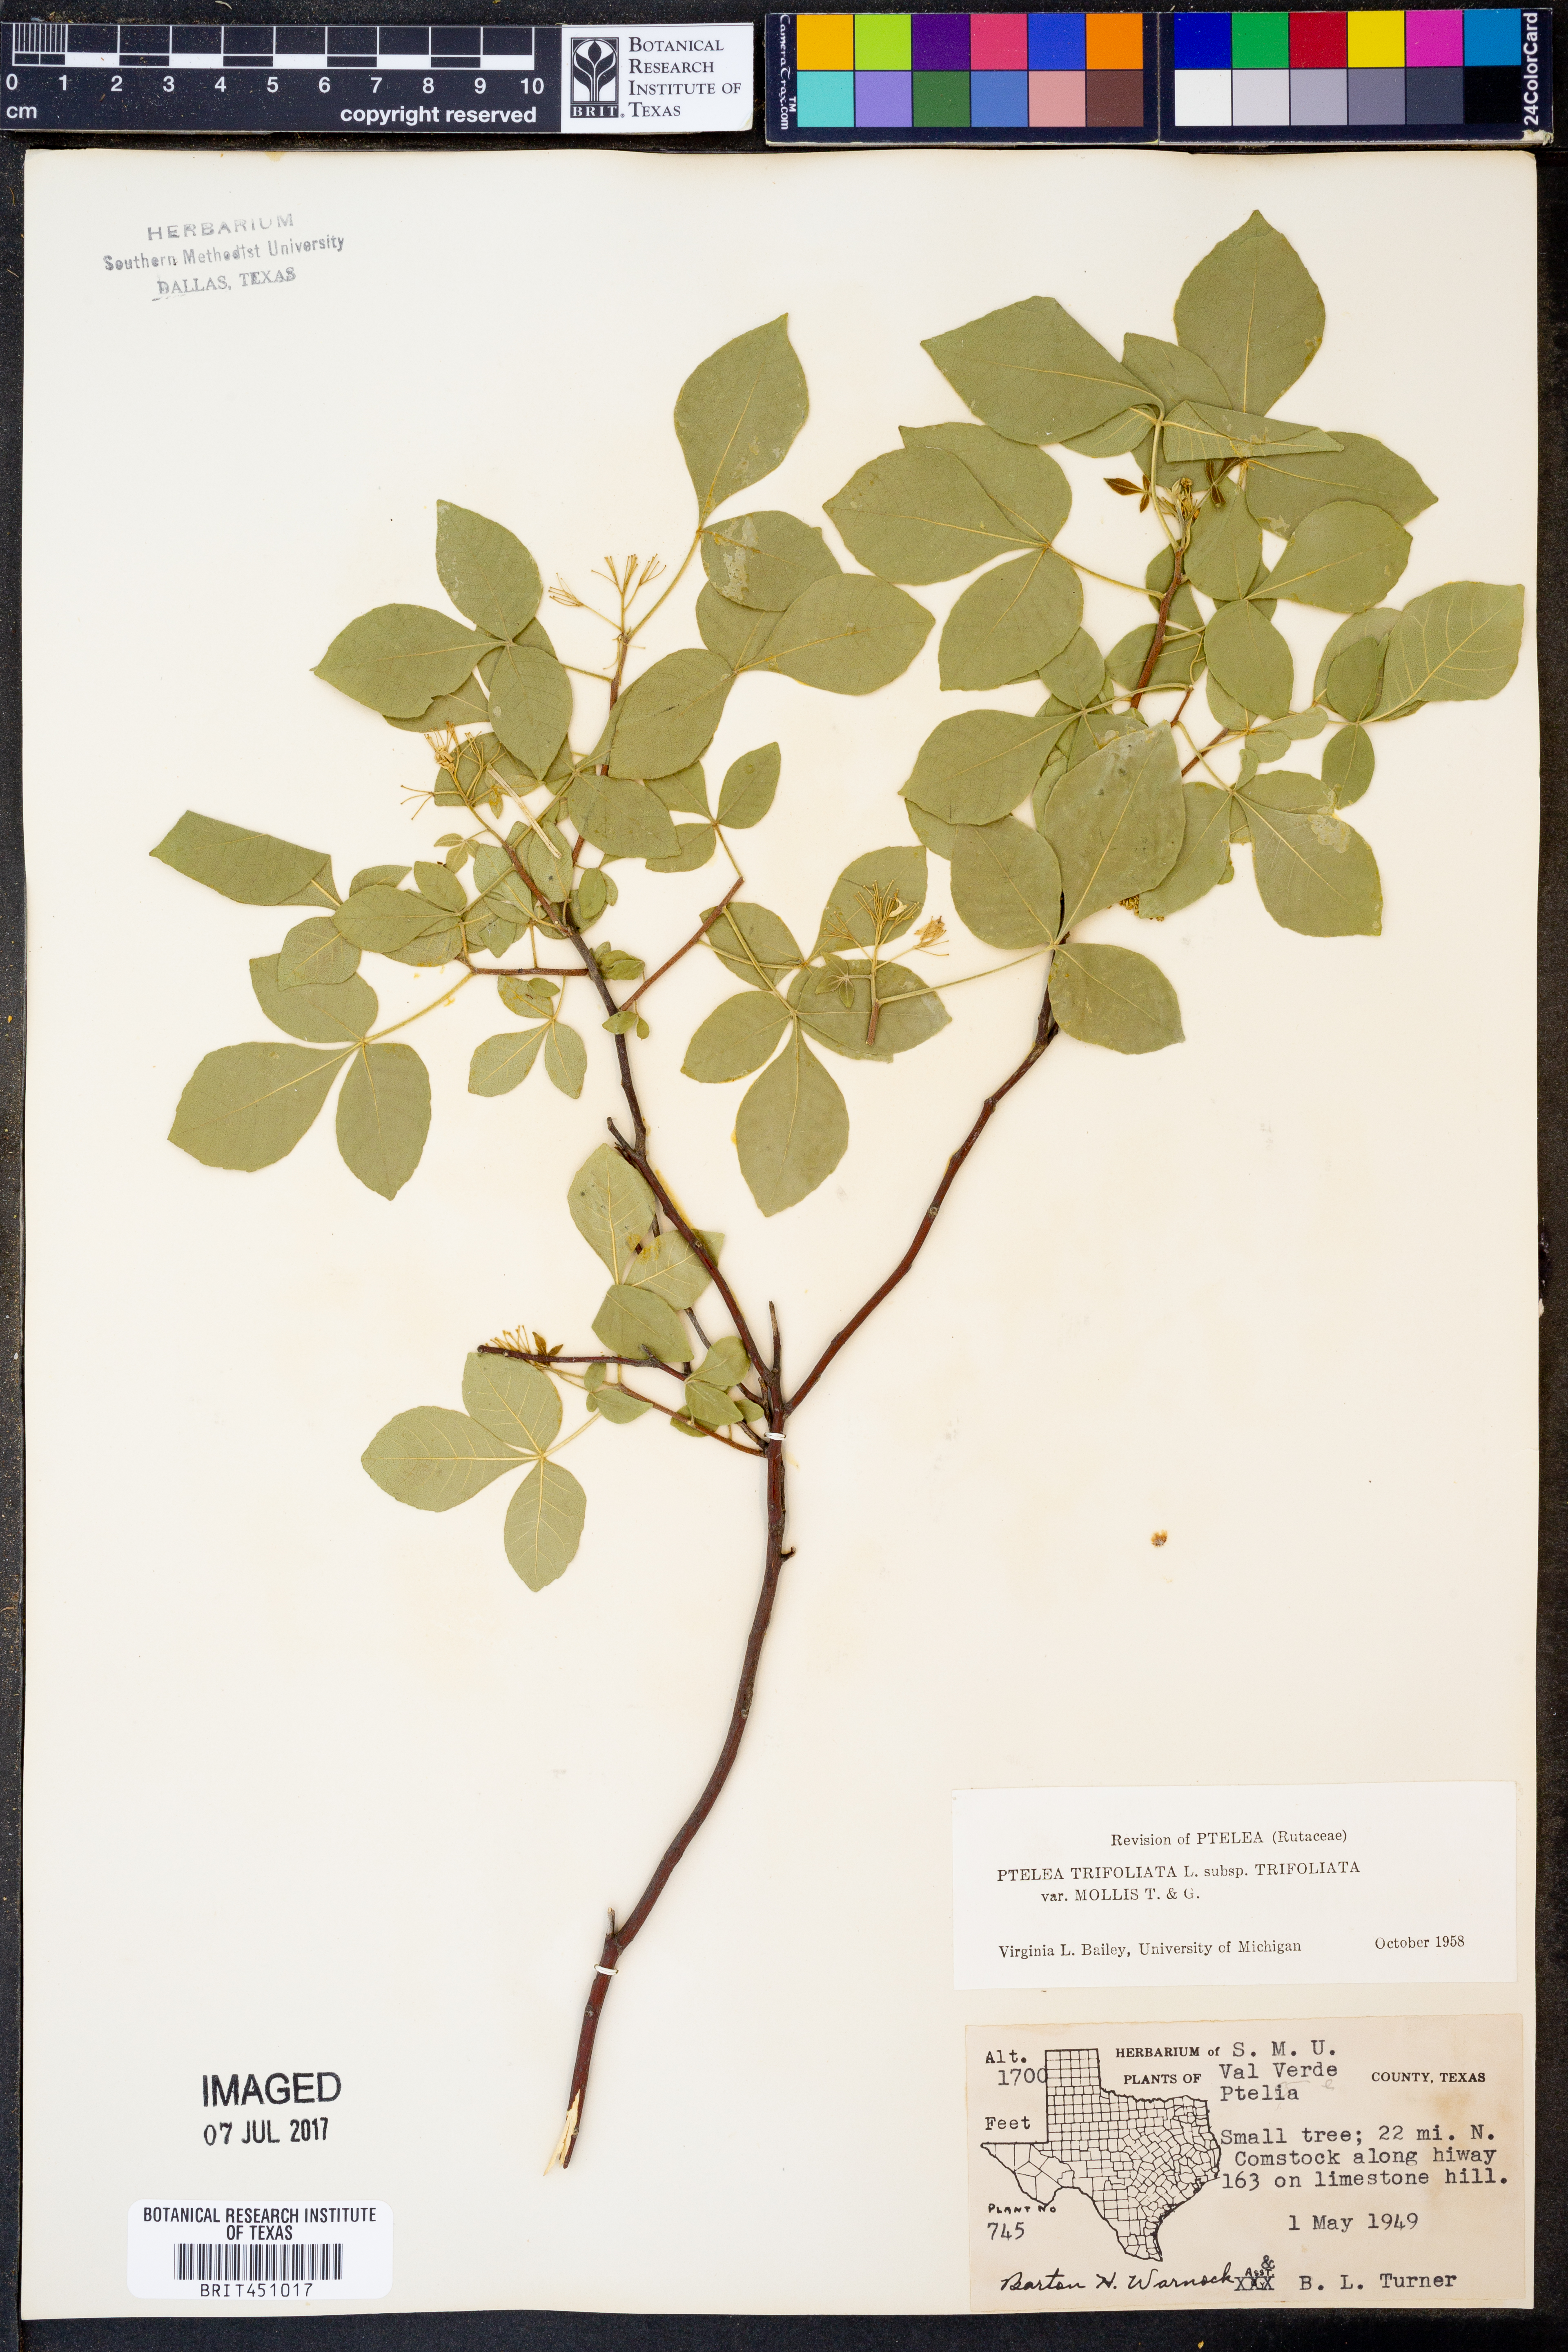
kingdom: Plantae
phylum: Tracheophyta
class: Magnoliopsida
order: Sapindales
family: Rutaceae
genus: Ptelea
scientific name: Ptelea trifoliata
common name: Common hop-tree
